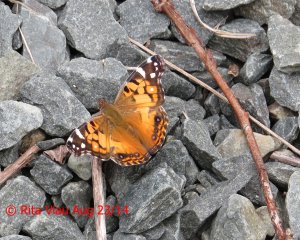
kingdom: Animalia
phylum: Arthropoda
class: Insecta
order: Lepidoptera
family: Nymphalidae
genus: Vanessa
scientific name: Vanessa virginiensis
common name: American Lady
